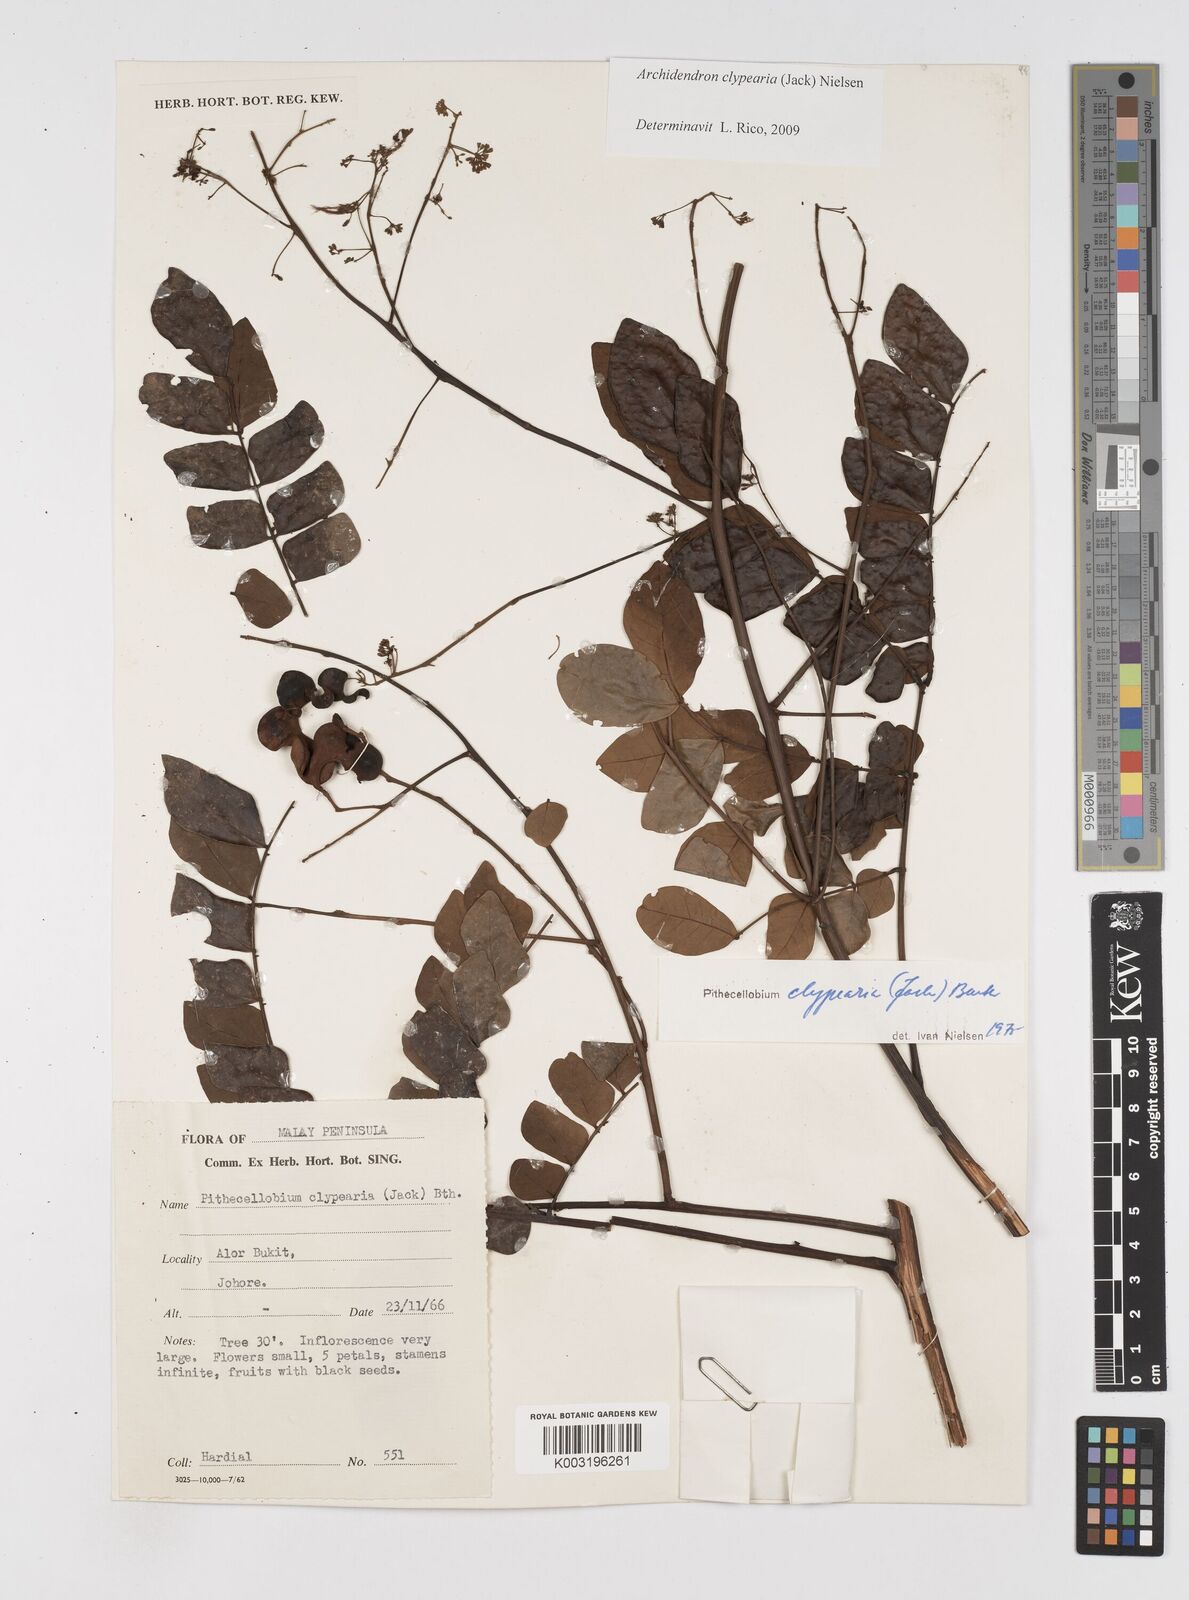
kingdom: Plantae
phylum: Tracheophyta
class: Magnoliopsida
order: Fabales
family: Fabaceae
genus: Archidendron
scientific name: Archidendron clypearia
